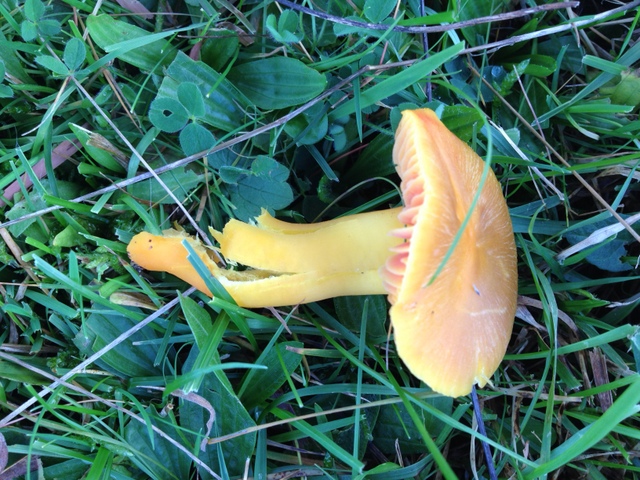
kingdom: Fungi
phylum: Basidiomycota
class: Agaricomycetes
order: Agaricales
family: Hygrophoraceae
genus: Hygrocybe
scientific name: Hygrocybe quieta
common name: tæge-vokshat
